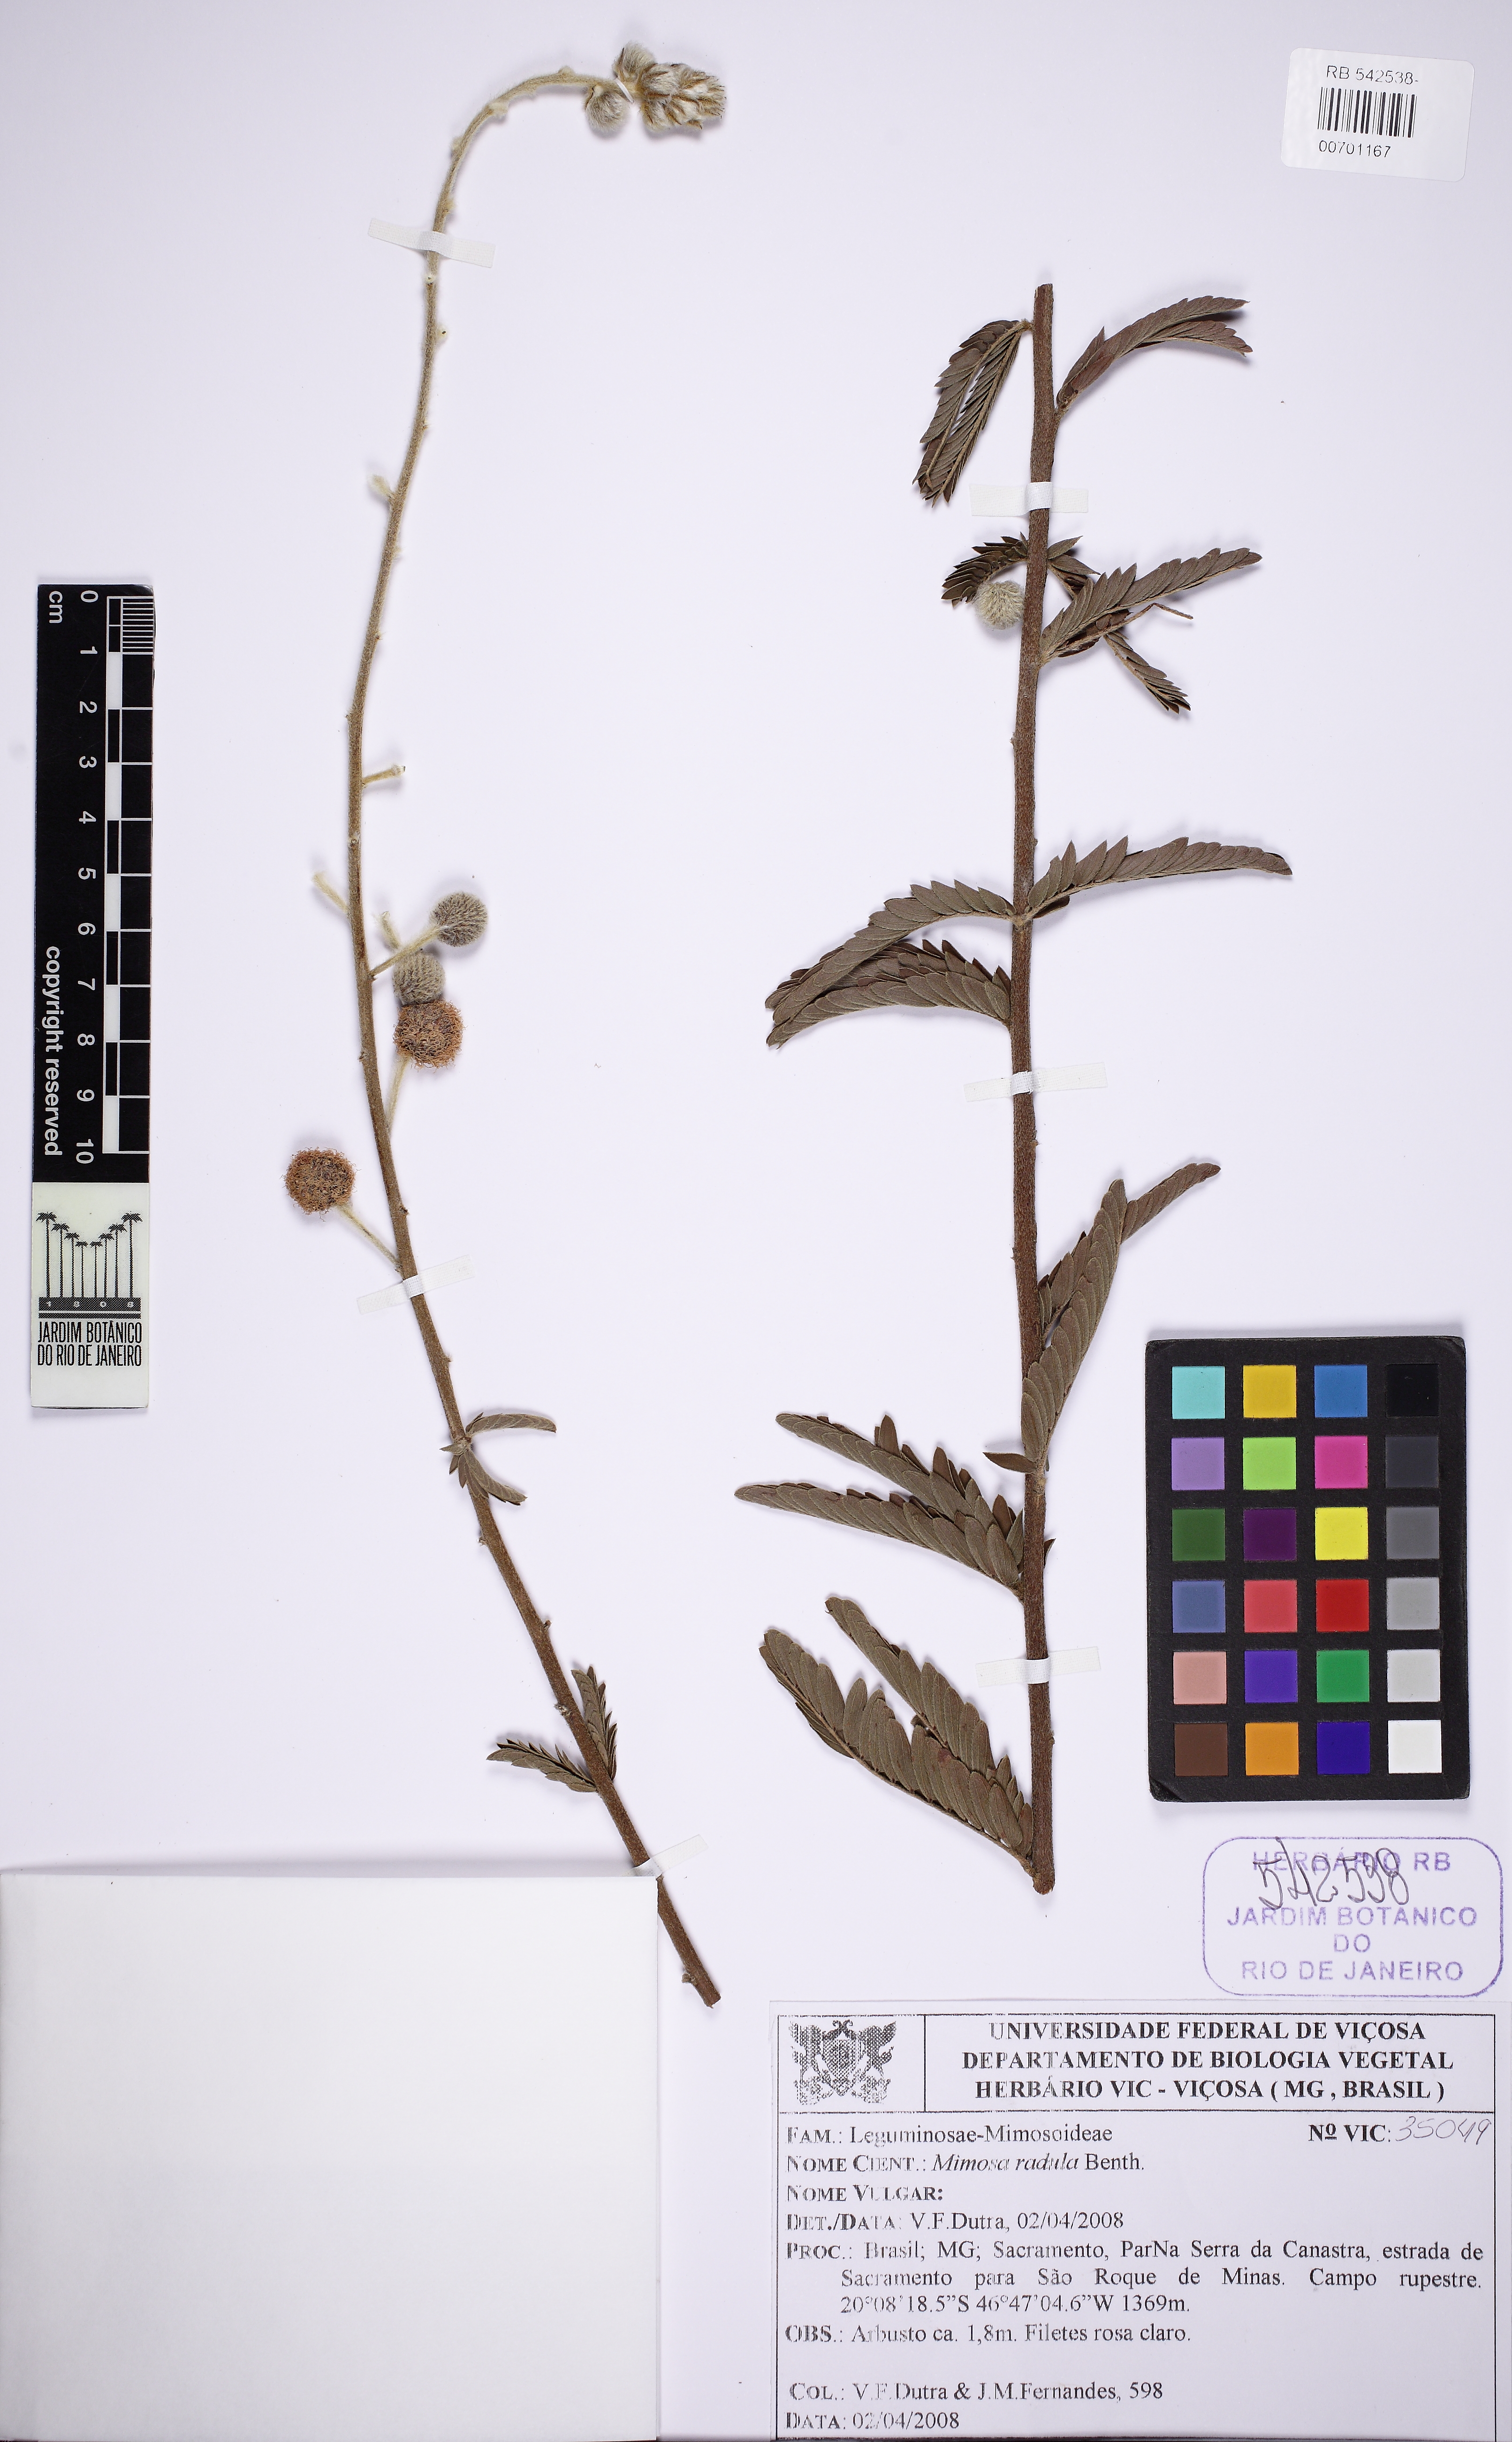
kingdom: Plantae
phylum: Tracheophyta
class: Magnoliopsida
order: Fabales
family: Fabaceae
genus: Mimosa
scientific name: Mimosa radula
